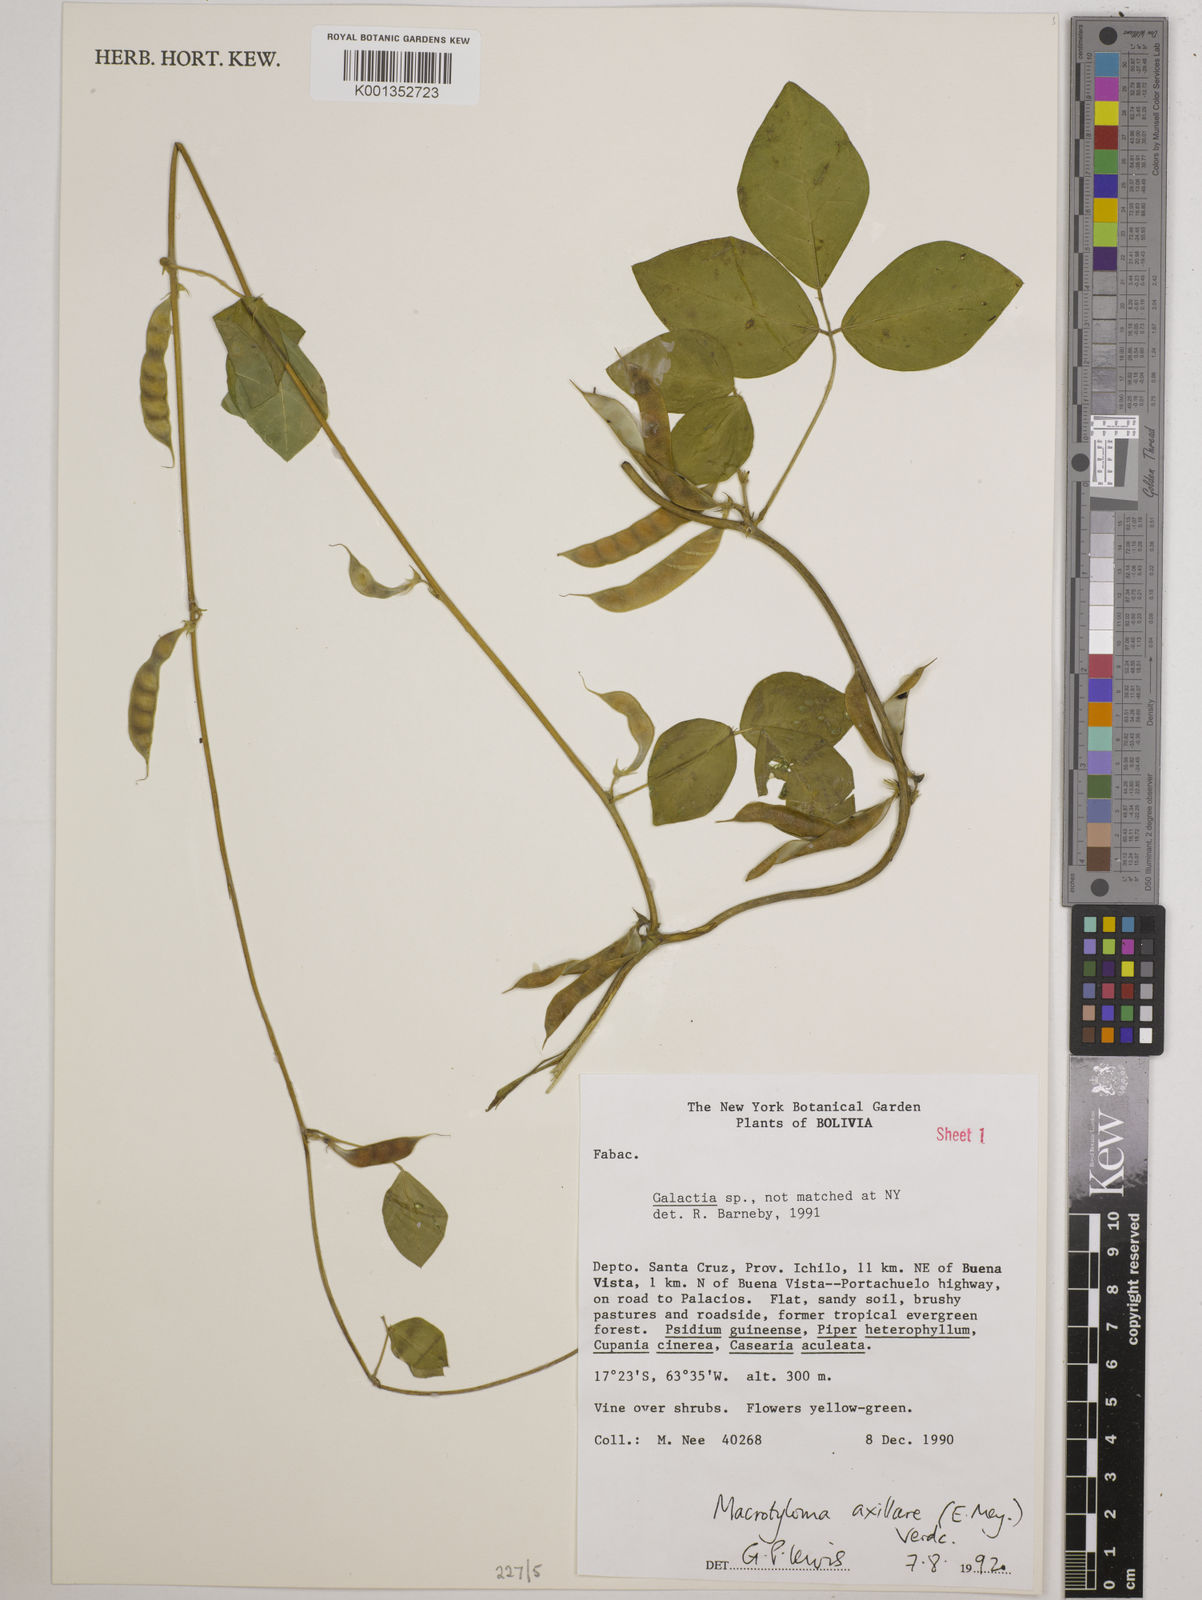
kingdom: Plantae
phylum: Tracheophyta
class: Magnoliopsida
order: Fabales
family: Fabaceae
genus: Macrotyloma
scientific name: Macrotyloma axillare
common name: Perennial horsegram
